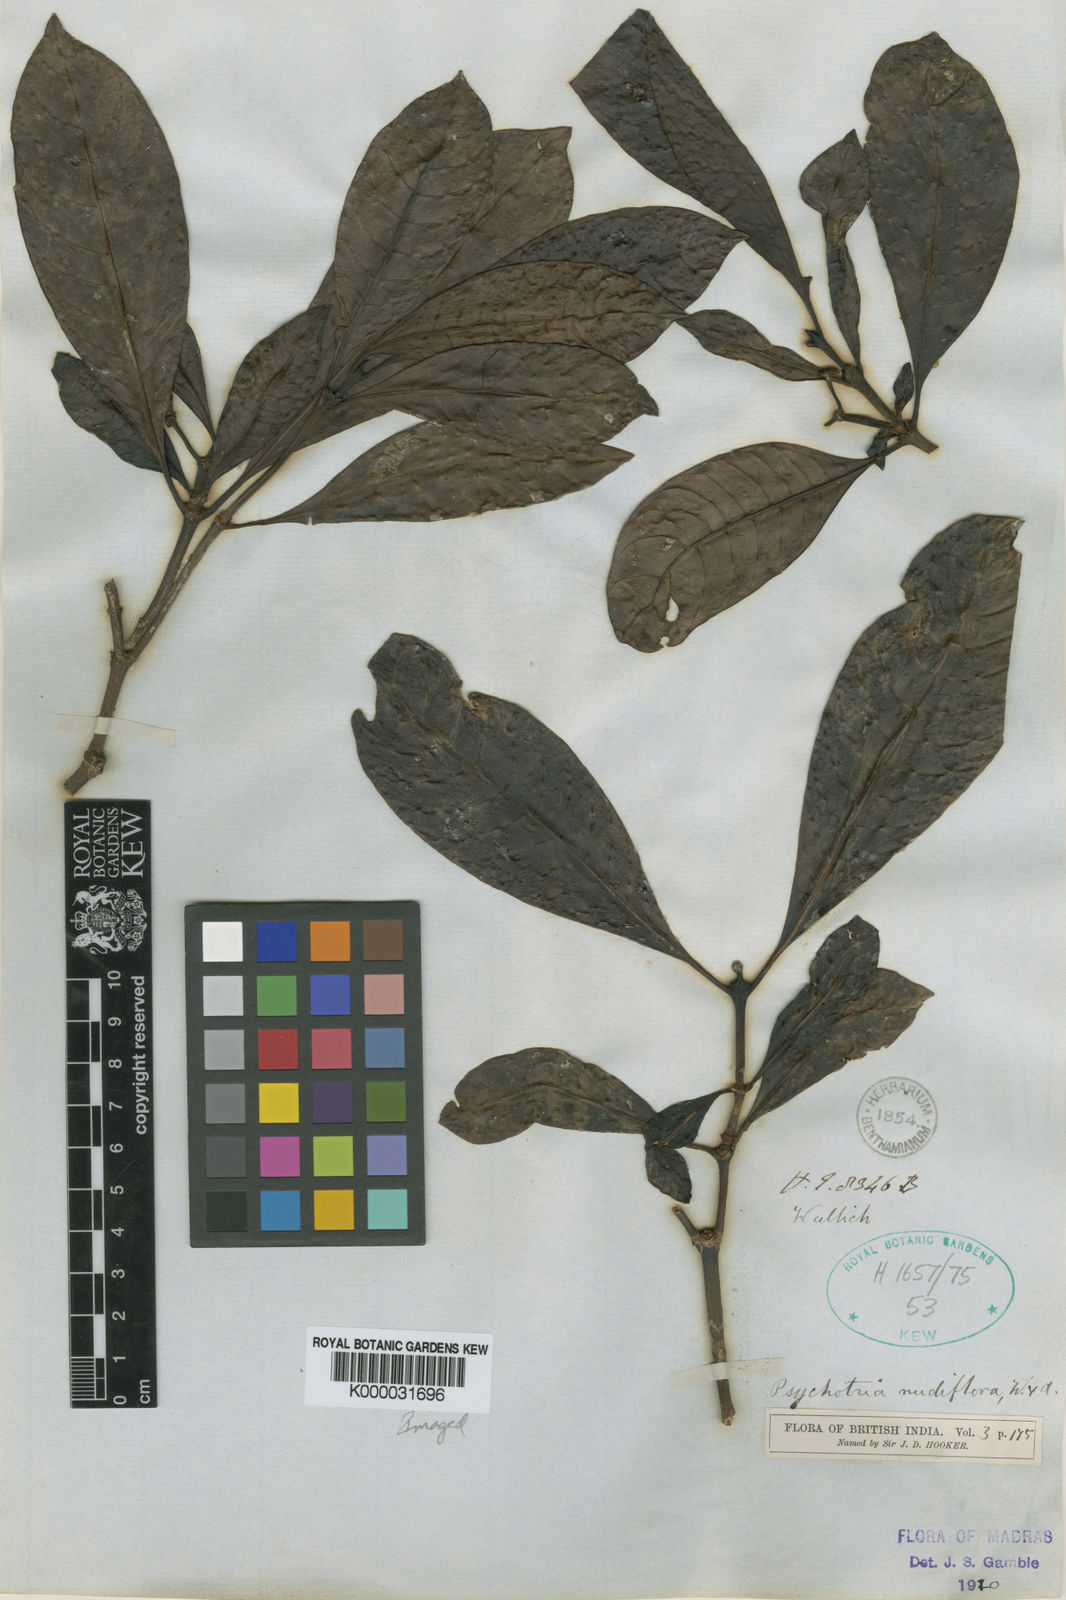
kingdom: Plantae
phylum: Tracheophyta
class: Magnoliopsida
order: Gentianales
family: Rubiaceae
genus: Psychotria
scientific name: Psychotria nudiflora
